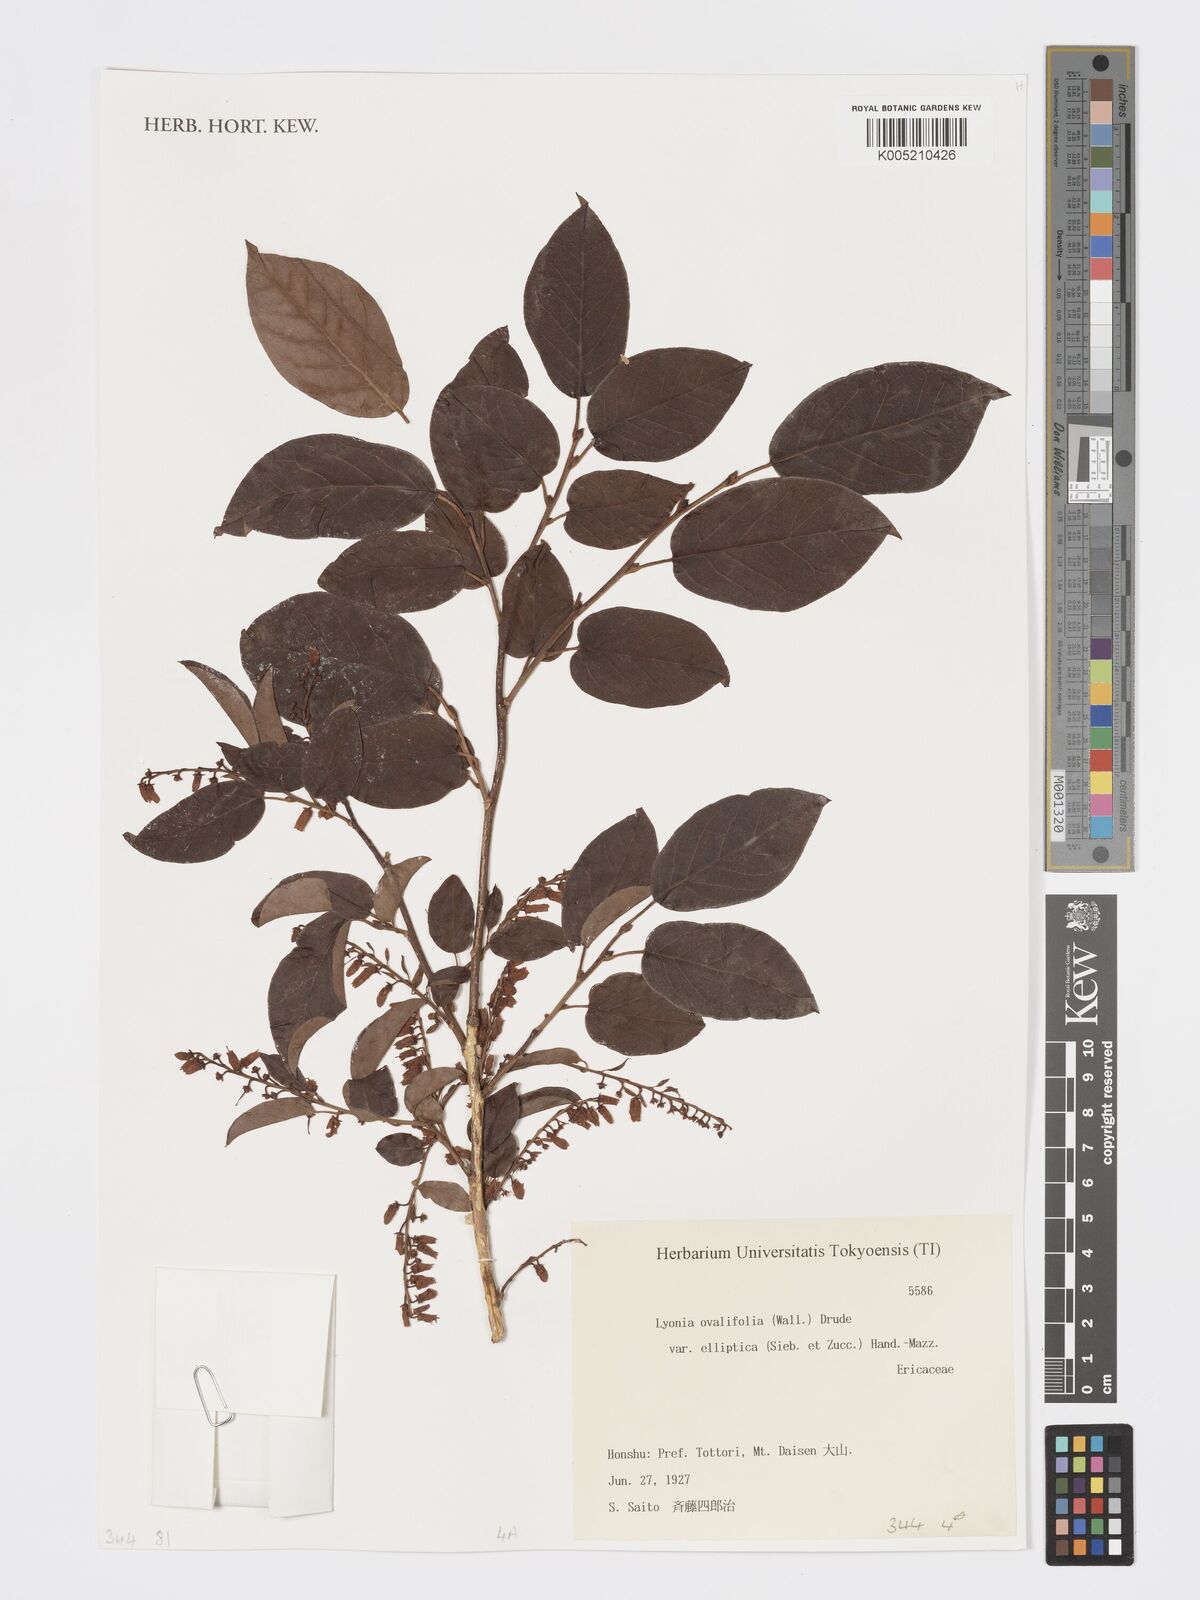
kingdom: Plantae
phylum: Tracheophyta
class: Magnoliopsida
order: Ericales
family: Ericaceae
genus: Lyonia
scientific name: Lyonia elliptica
